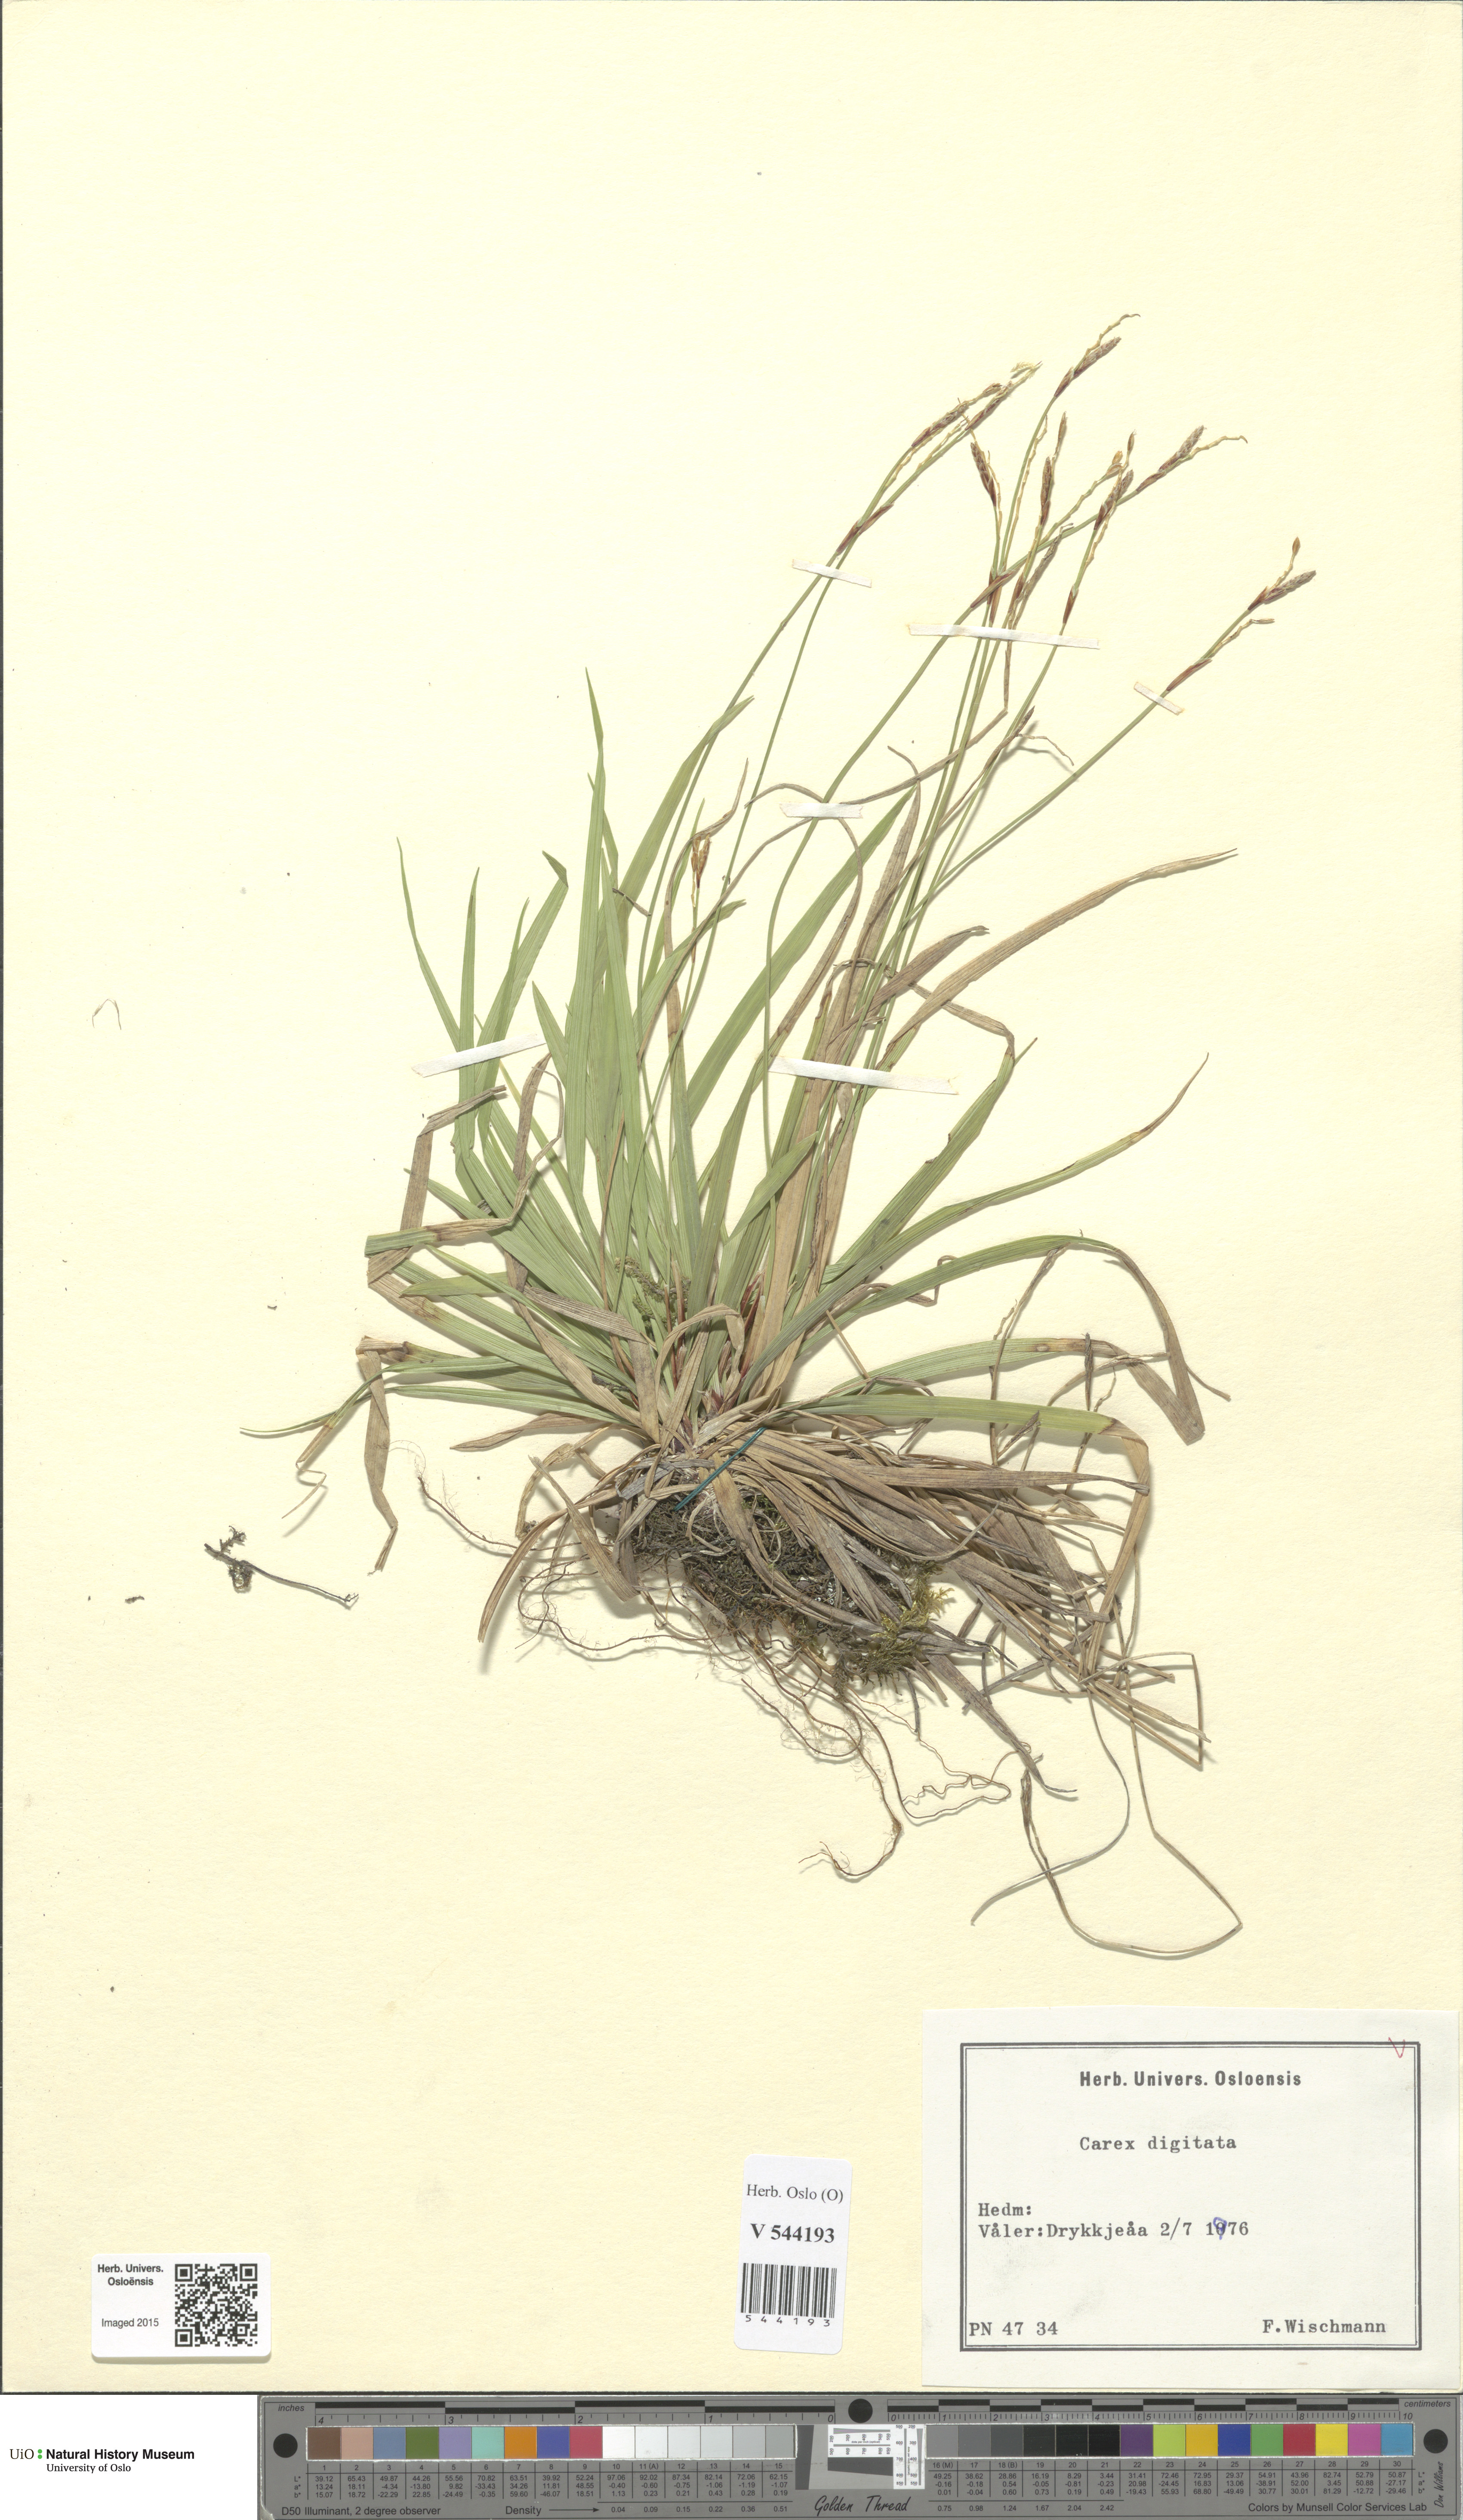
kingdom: Plantae
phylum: Tracheophyta
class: Liliopsida
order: Poales
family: Cyperaceae
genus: Carex
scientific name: Carex digitata
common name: Fingered sedge
